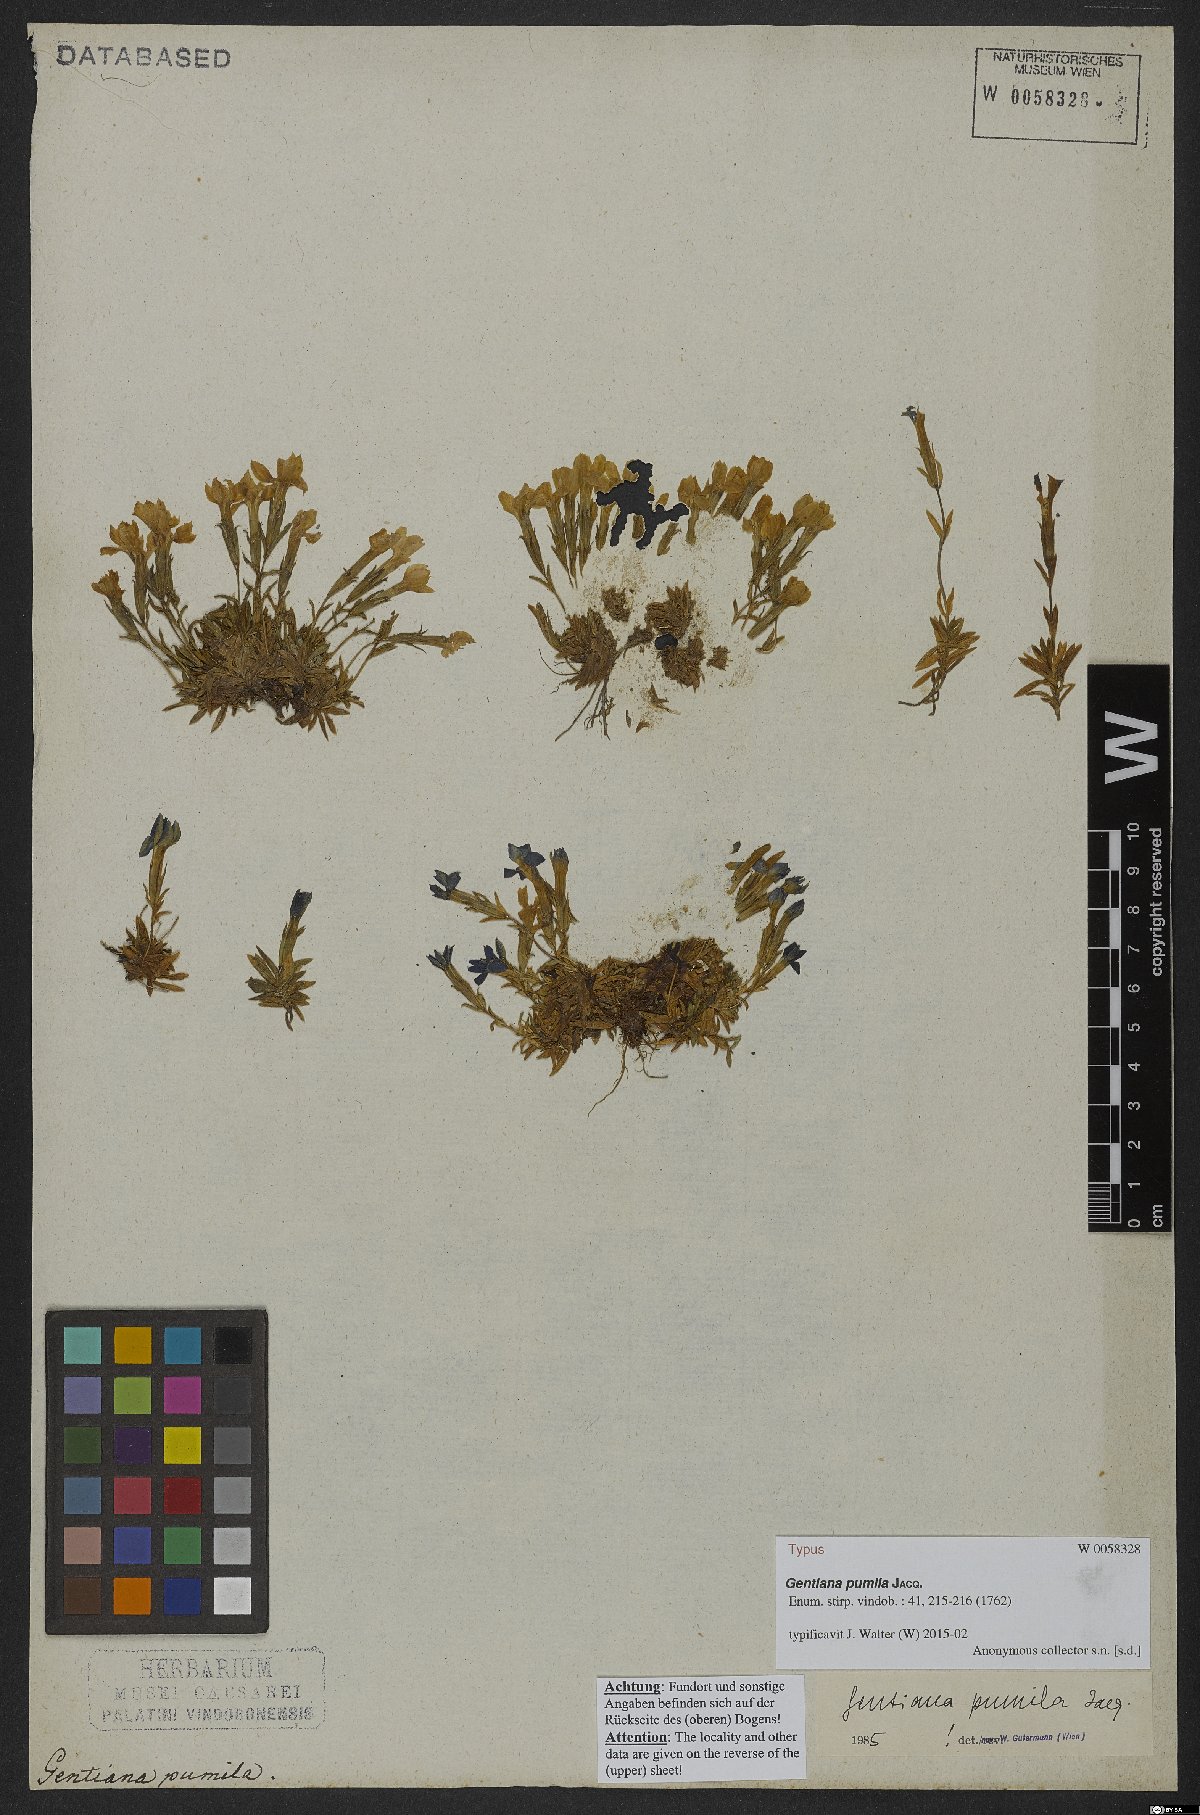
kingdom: Plantae
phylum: Tracheophyta
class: Magnoliopsida
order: Gentianales
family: Gentianaceae
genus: Gentiana
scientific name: Gentiana pumila
